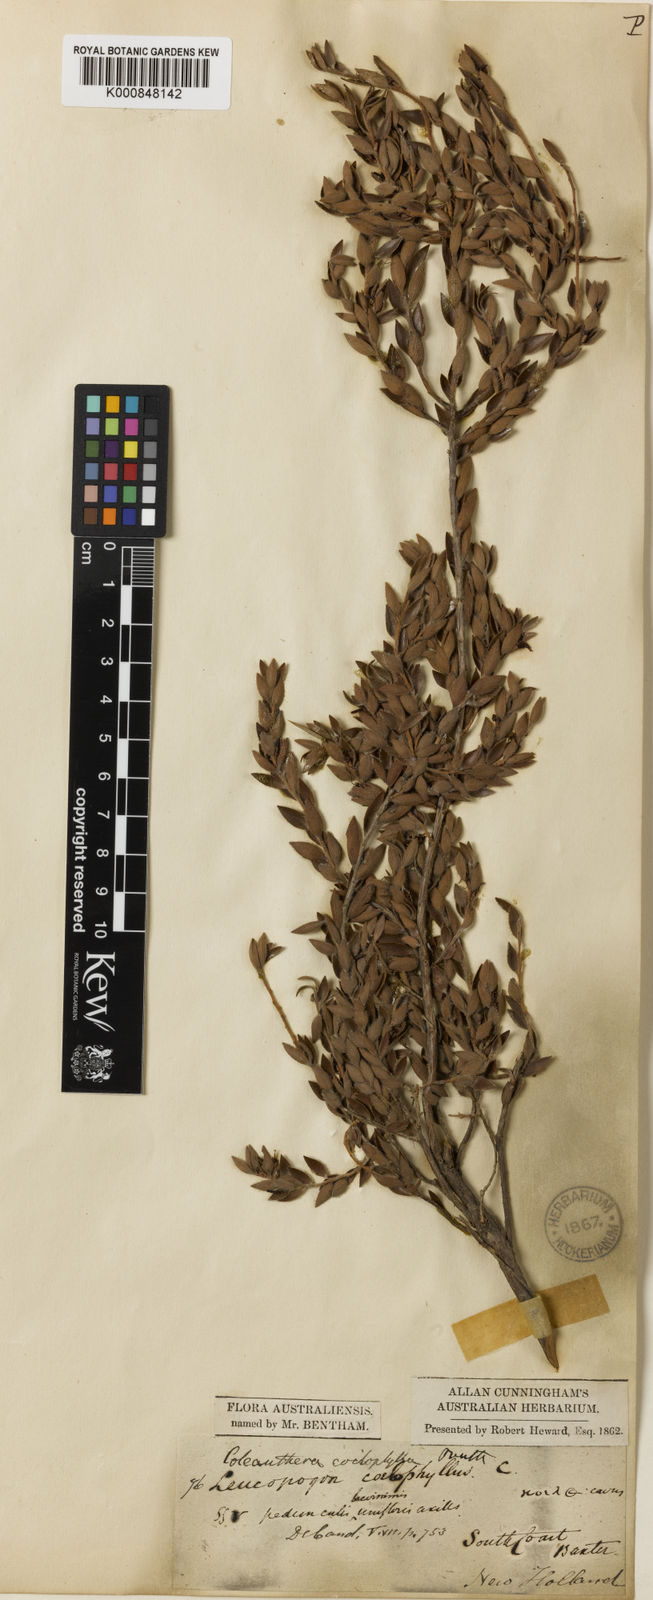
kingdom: Plantae
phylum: Tracheophyta
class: Magnoliopsida
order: Ericales
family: Ericaceae
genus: Styphelia
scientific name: Styphelia coelophylla
